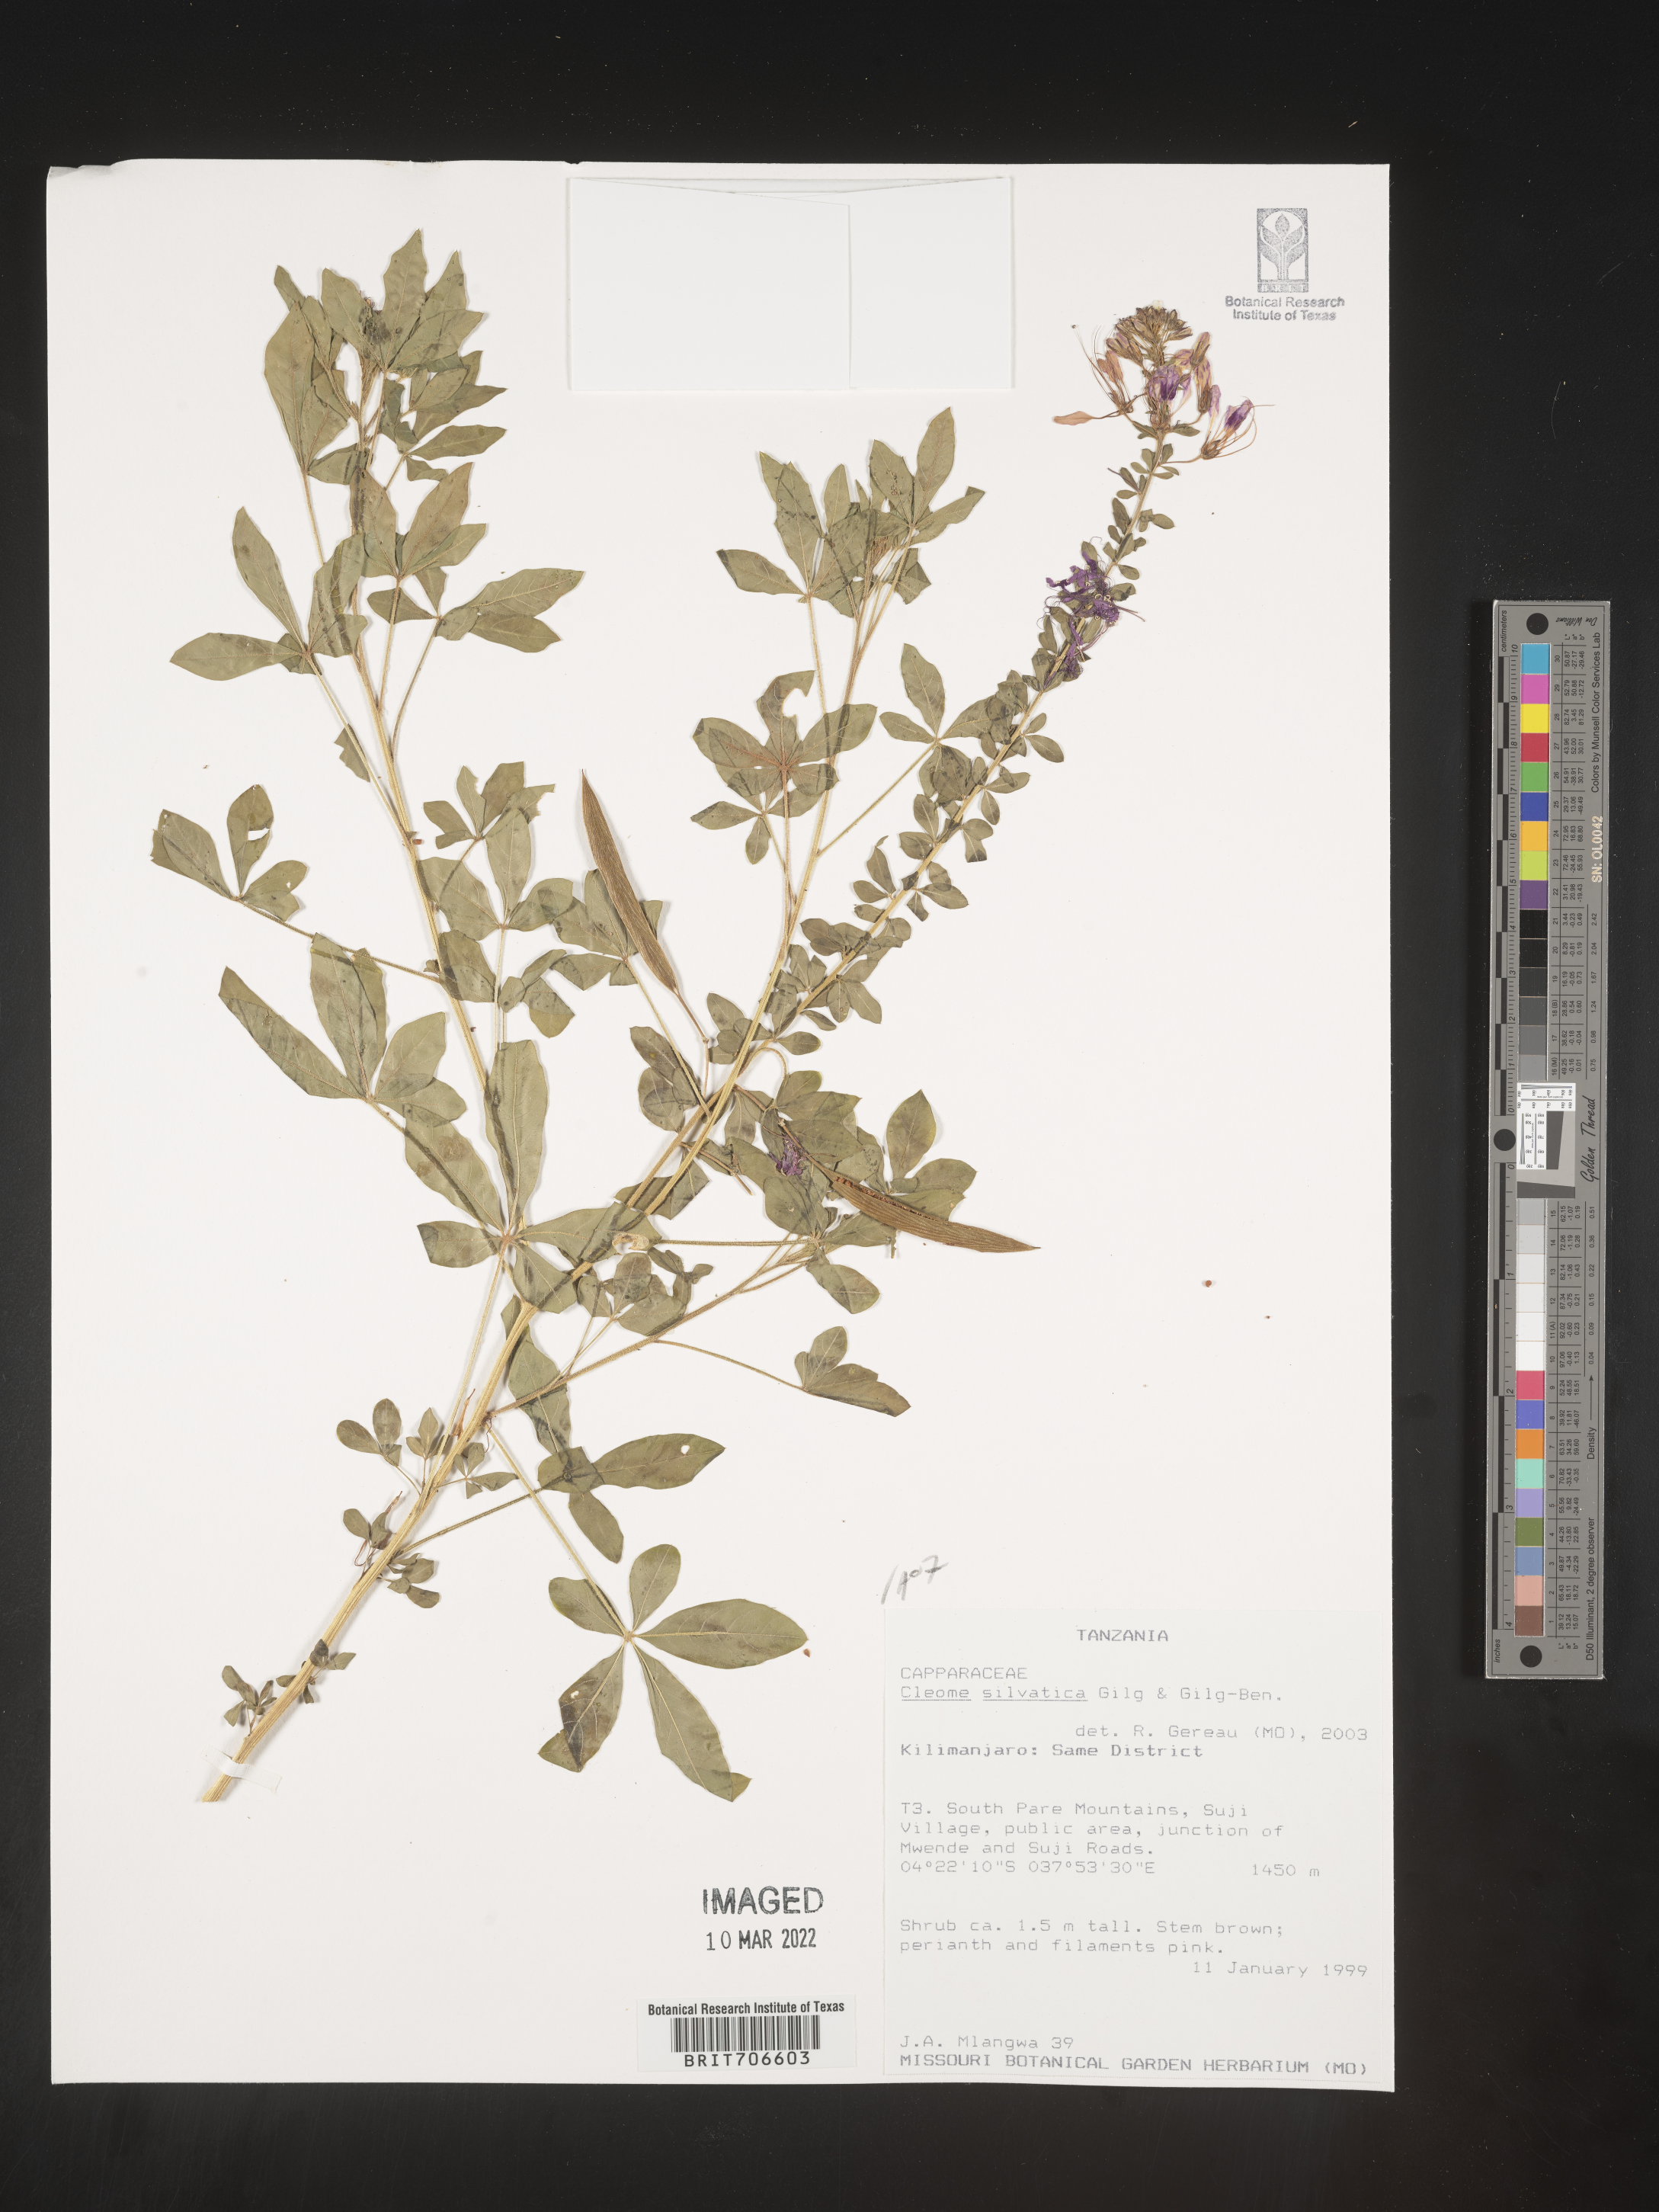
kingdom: Plantae
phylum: Tracheophyta
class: Magnoliopsida
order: Brassicales
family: Cleomaceae
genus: Cleome
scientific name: Cleome
